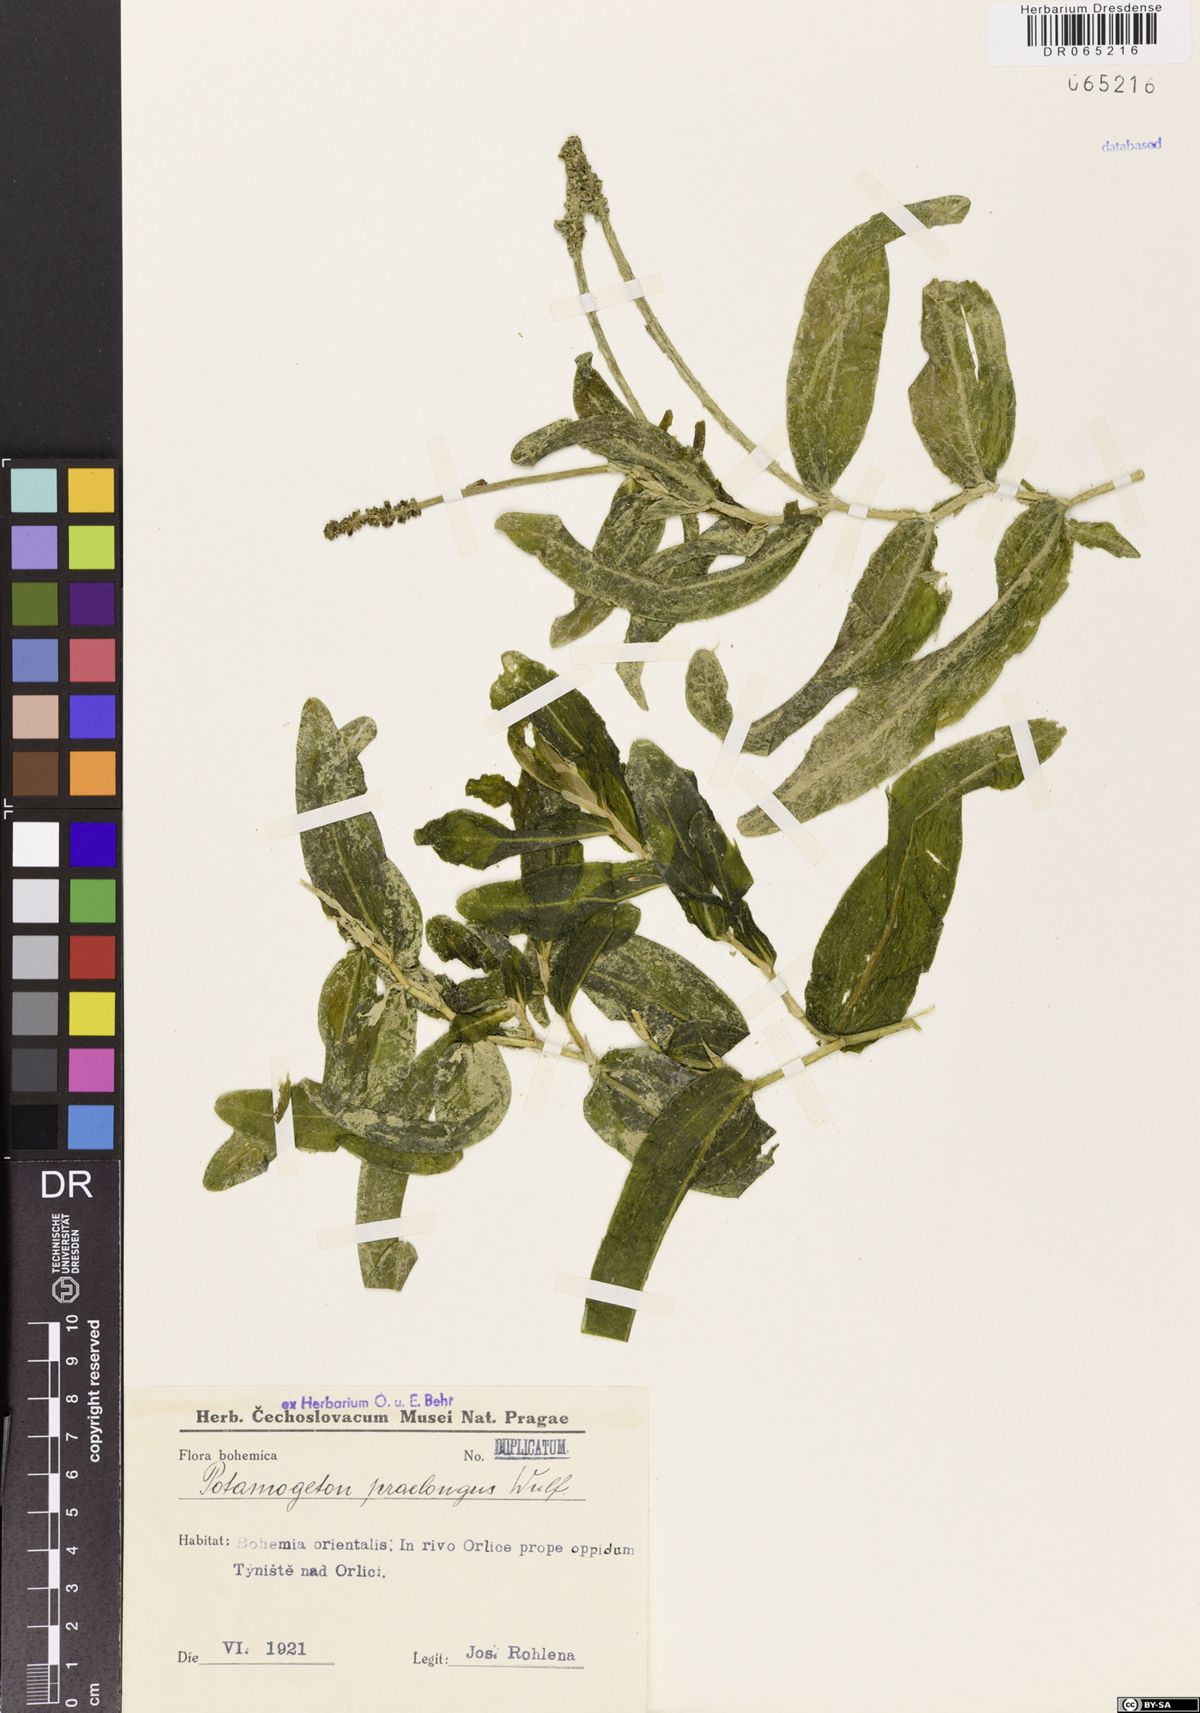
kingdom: Plantae
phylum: Tracheophyta
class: Liliopsida
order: Alismatales
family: Potamogetonaceae
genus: Potamogeton
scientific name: Potamogeton praelongus
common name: Long-stalked pondweed
